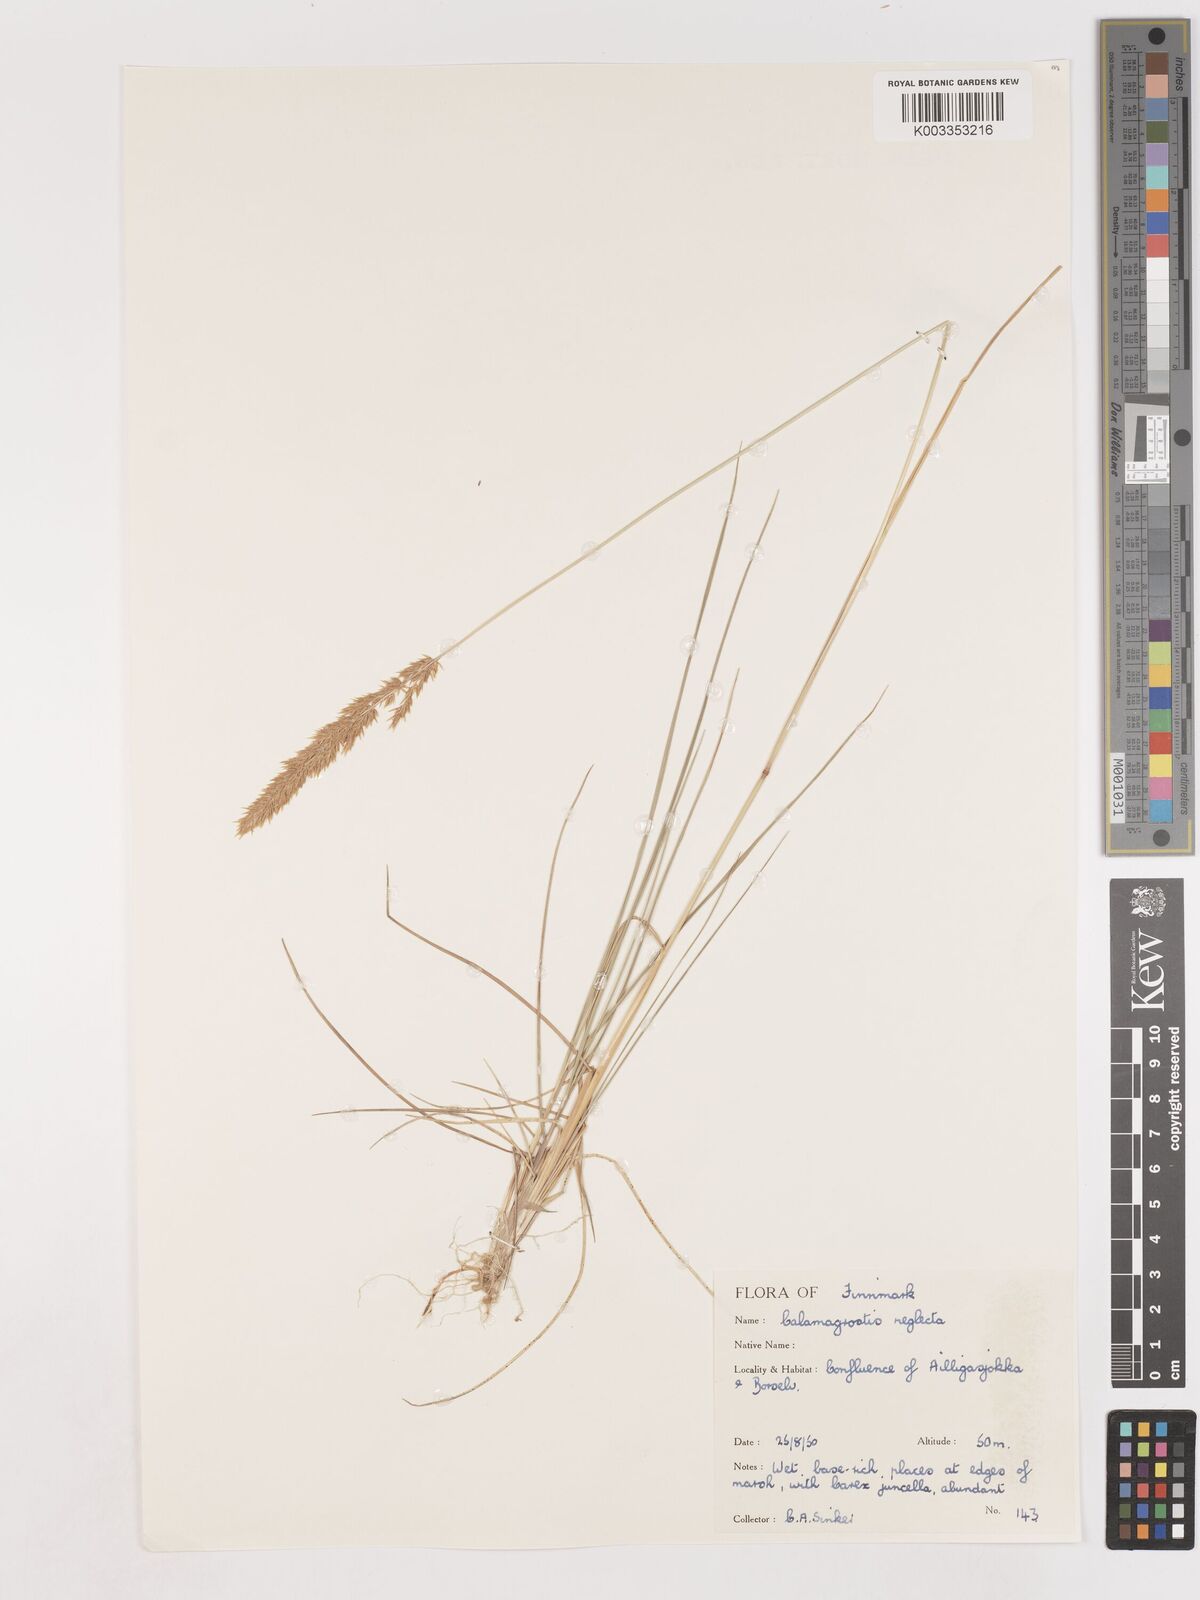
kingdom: Plantae
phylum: Tracheophyta
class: Liliopsida
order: Poales
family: Poaceae
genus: Cinnagrostis
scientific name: Cinnagrostis recta
